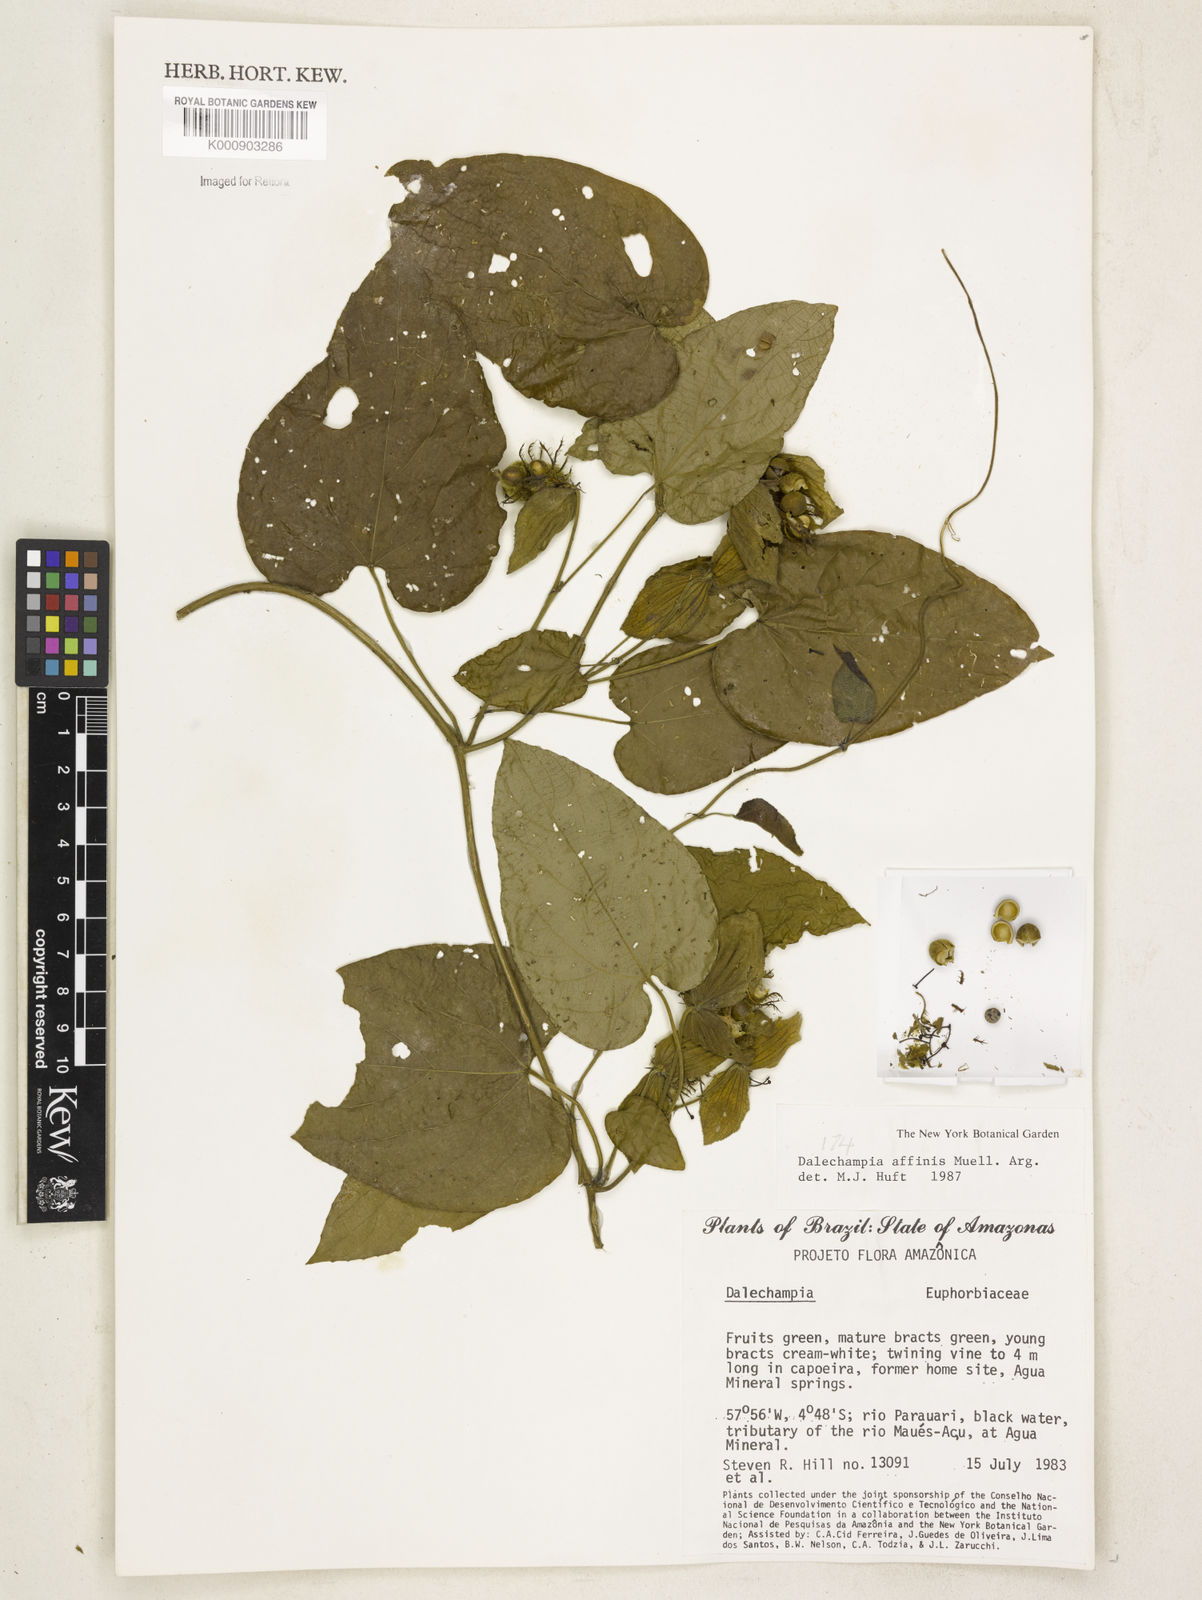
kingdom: Plantae
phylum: Tracheophyta
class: Magnoliopsida
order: Malpighiales
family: Euphorbiaceae
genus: Dalechampia
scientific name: Dalechampia
